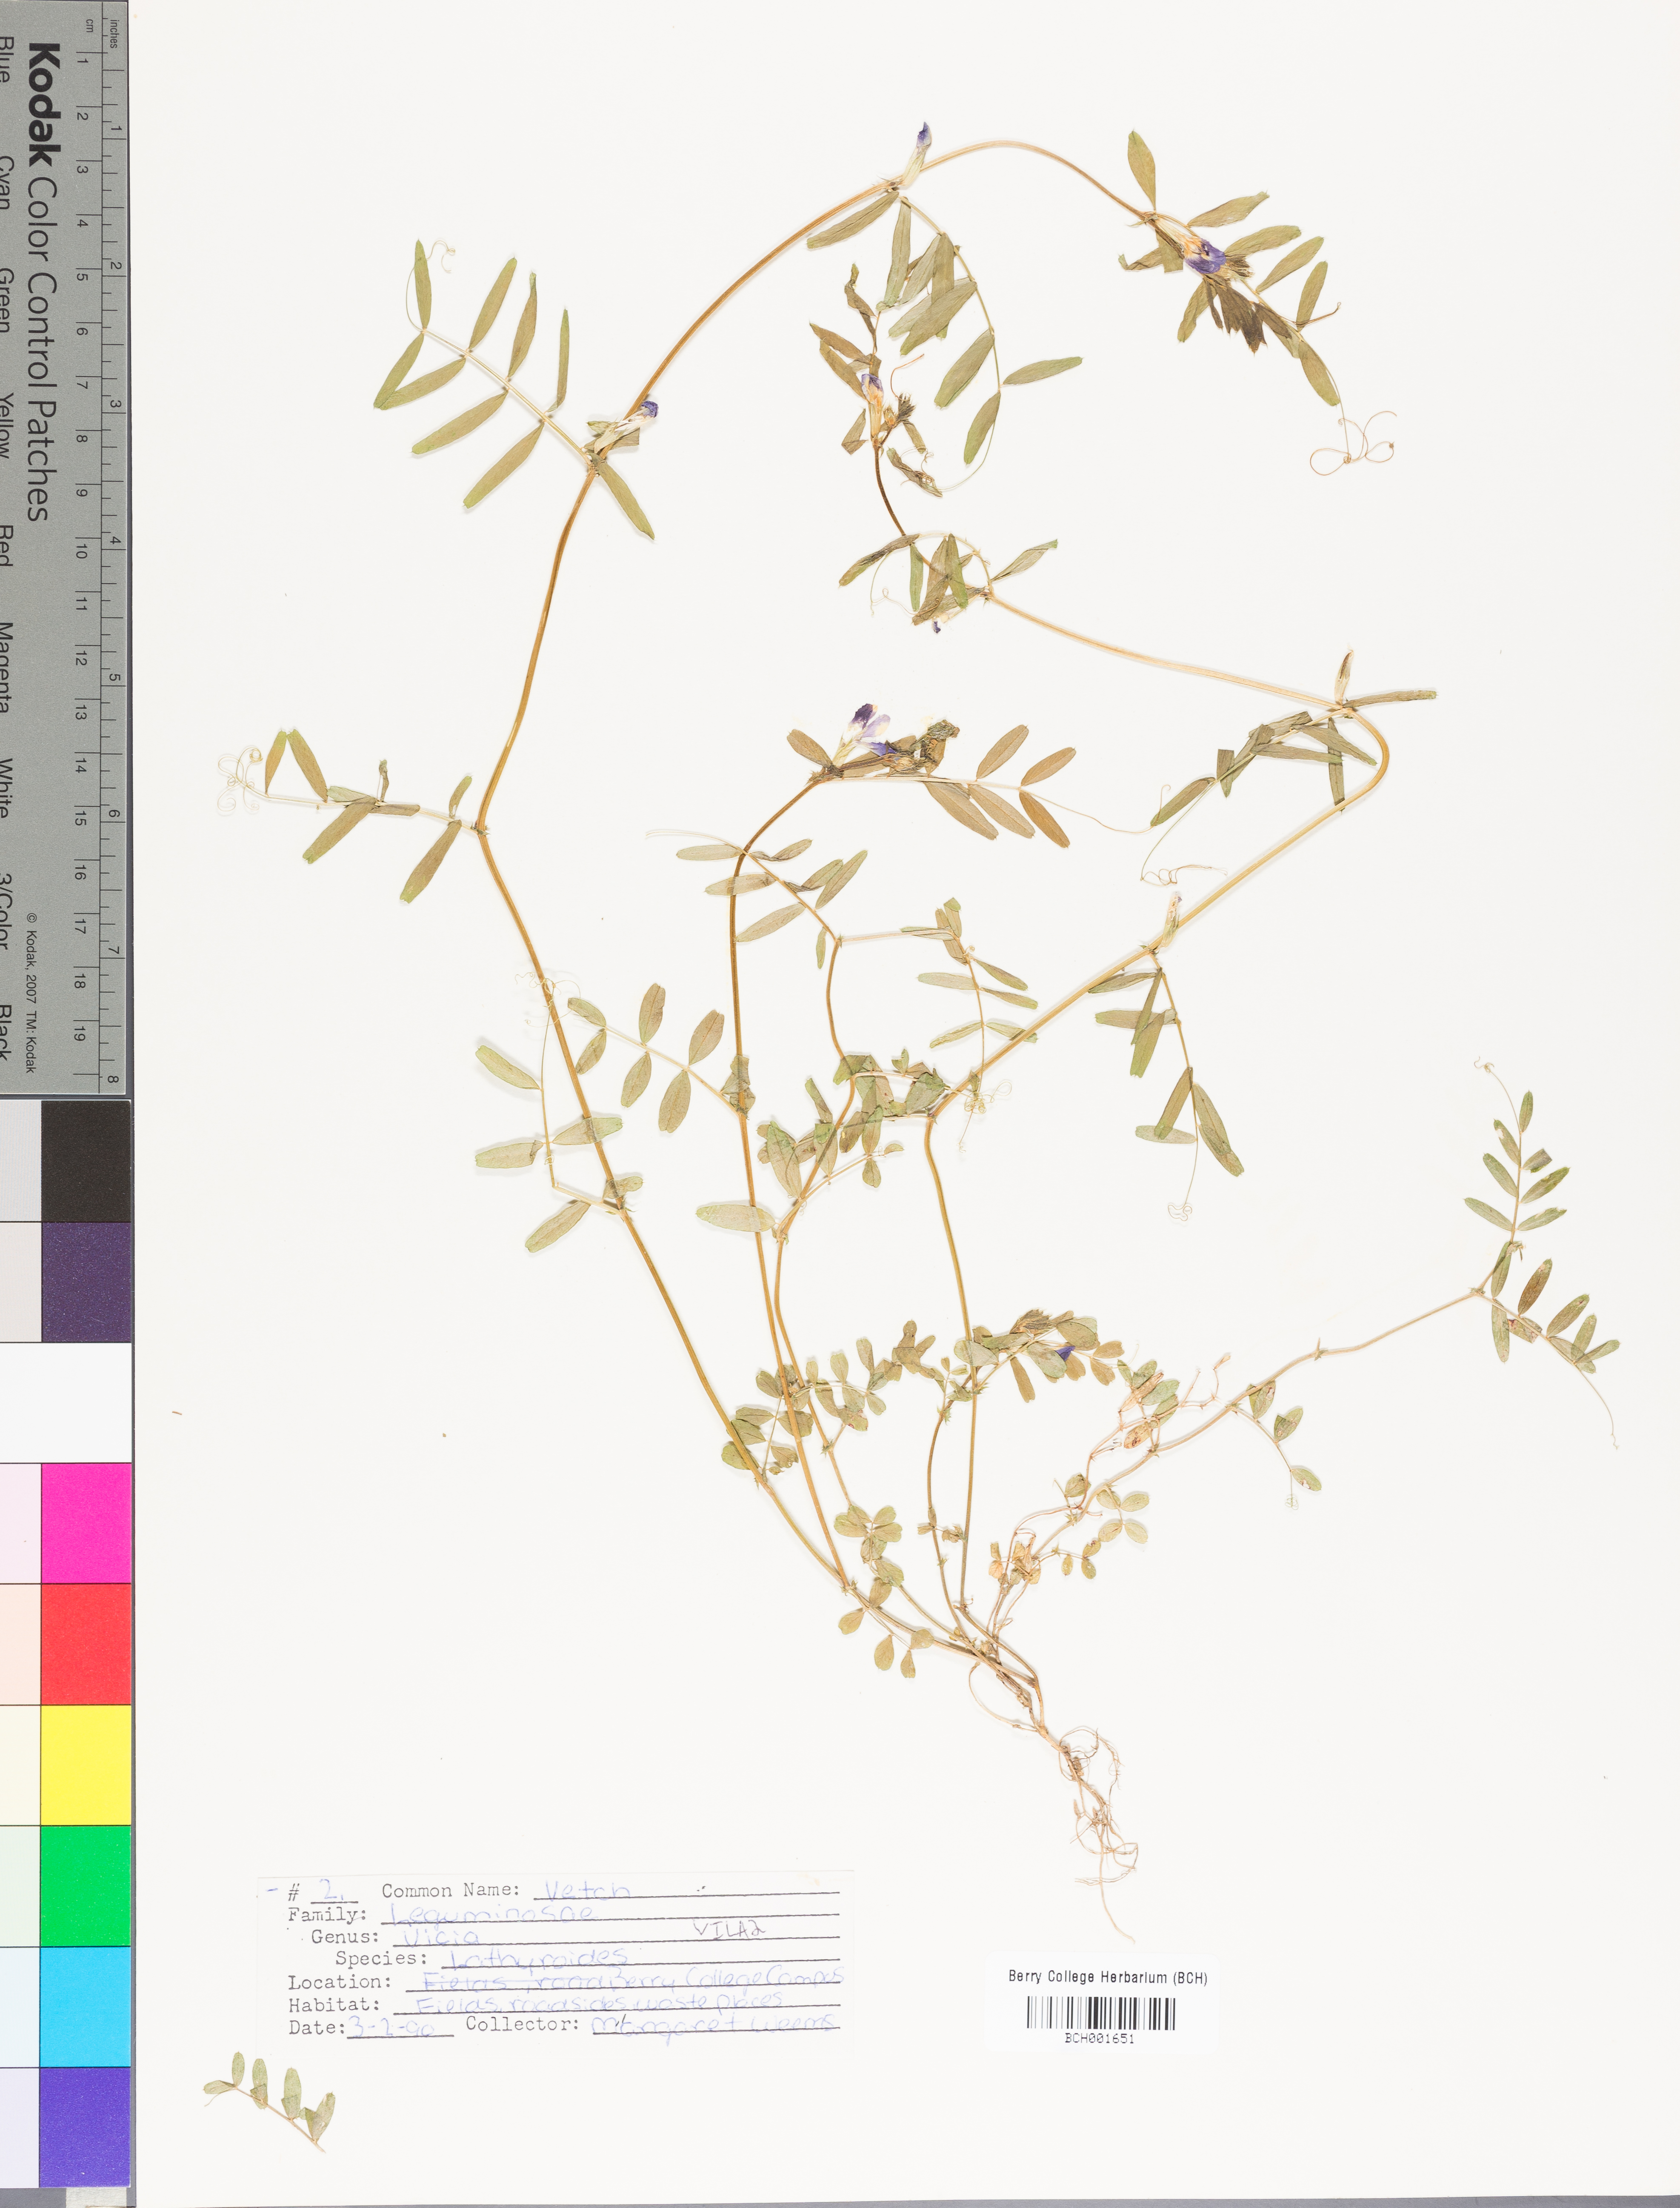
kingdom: Plantae
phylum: Tracheophyta
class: Magnoliopsida
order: Fabales
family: Fabaceae
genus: Vicia
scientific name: Vicia lathyroides
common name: Spring vetch
